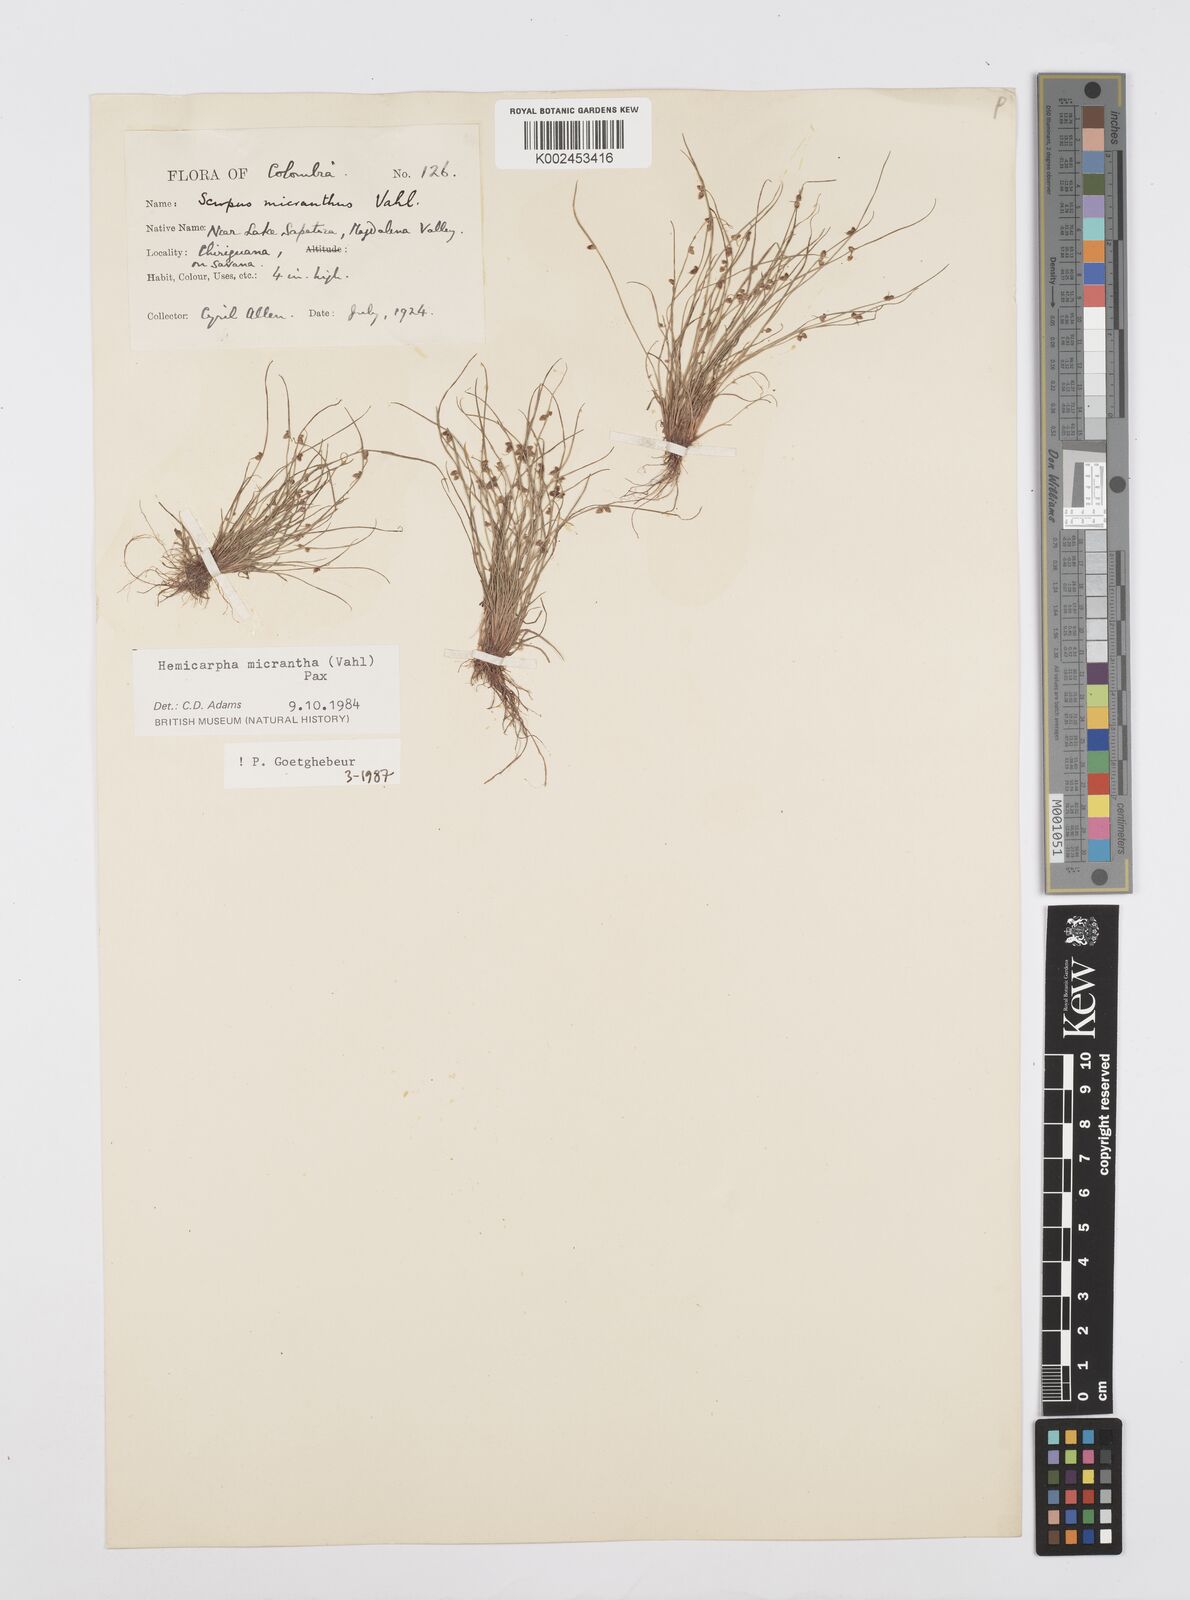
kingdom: Plantae
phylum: Tracheophyta
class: Liliopsida
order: Poales
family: Cyperaceae
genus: Cyperus
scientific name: Cyperus dentatus
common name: Dentate umbrella sedge
